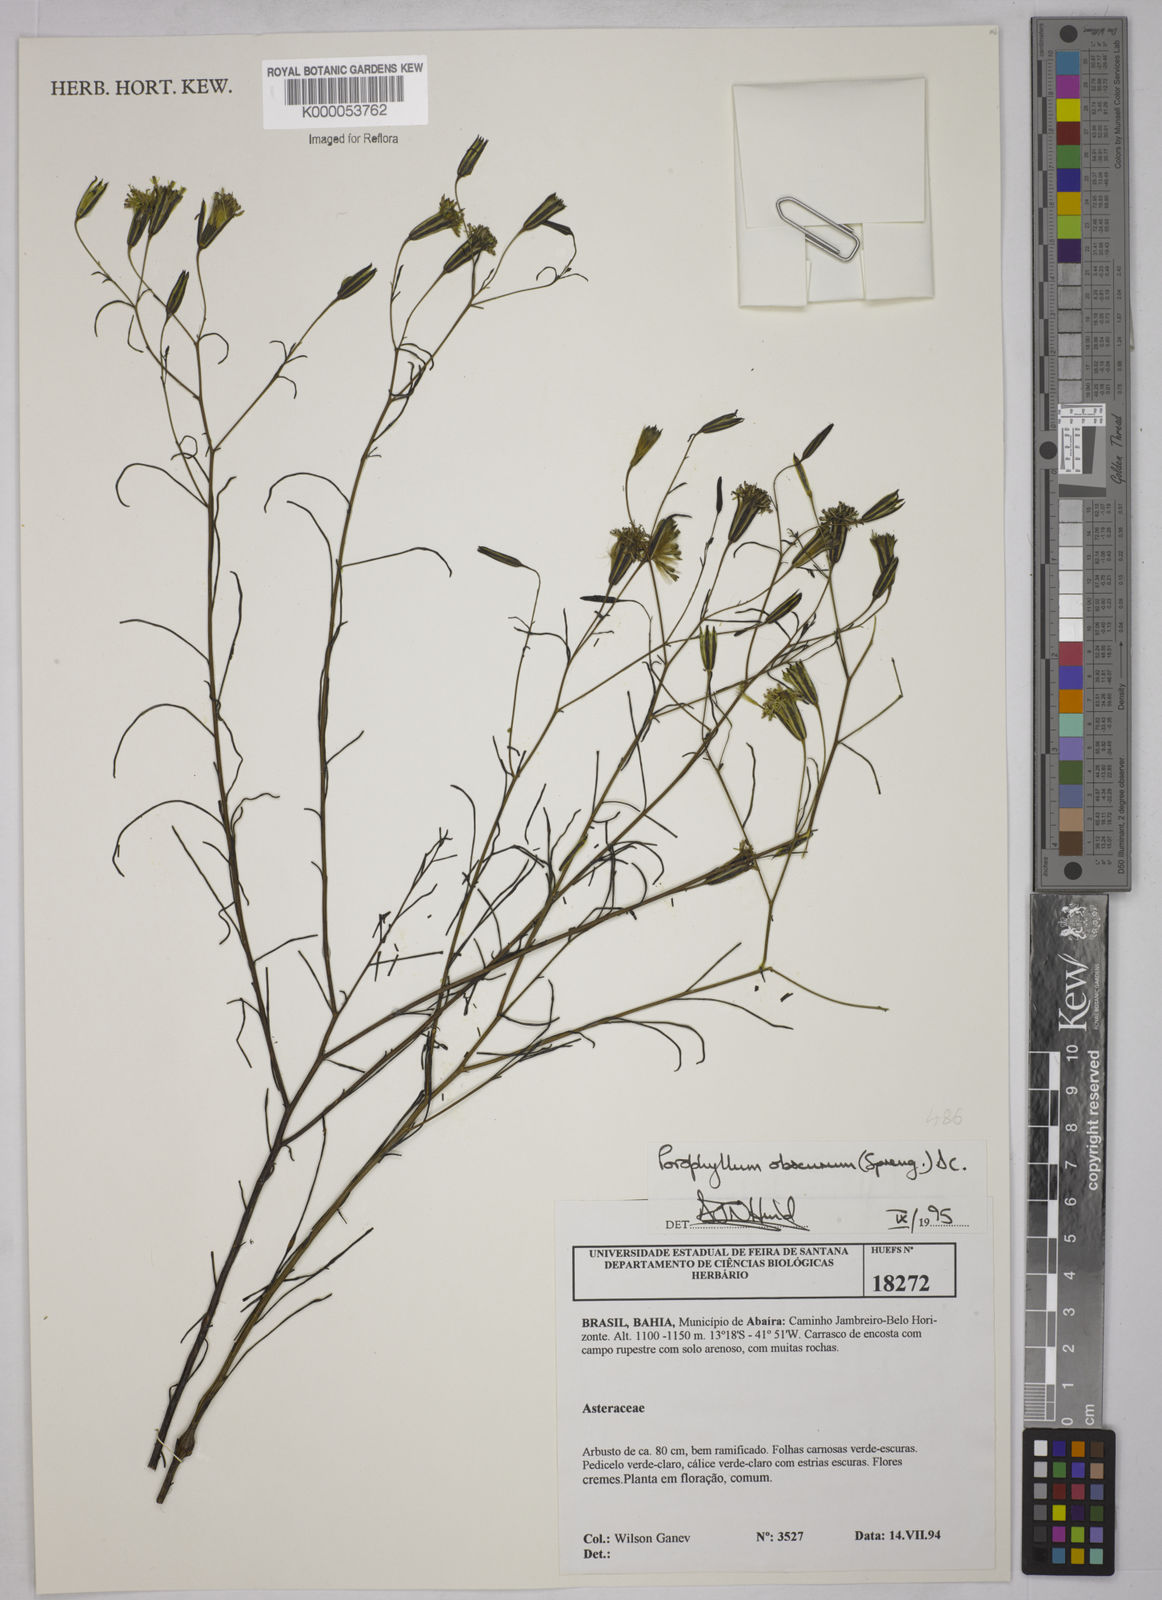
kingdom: Plantae
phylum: Tracheophyta
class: Magnoliopsida
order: Asterales
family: Asteraceae
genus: Porophyllum
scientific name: Porophyllum obscurum
